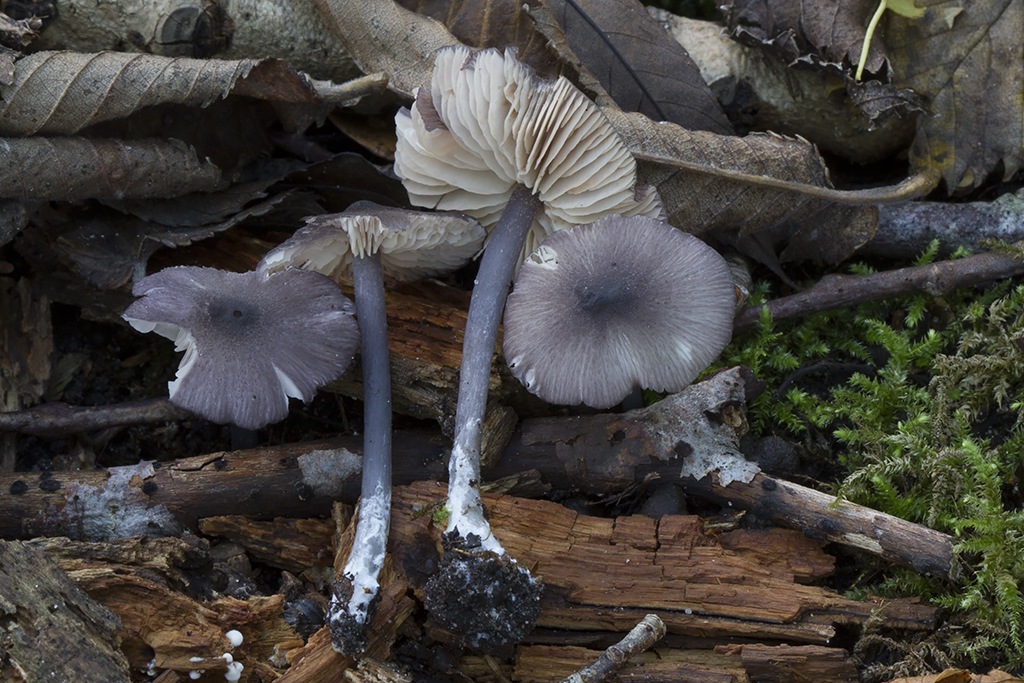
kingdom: Fungi
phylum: Basidiomycota
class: Agaricomycetes
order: Agaricales
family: Entolomataceae
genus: Entoloma
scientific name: Entoloma phaeodiscum
